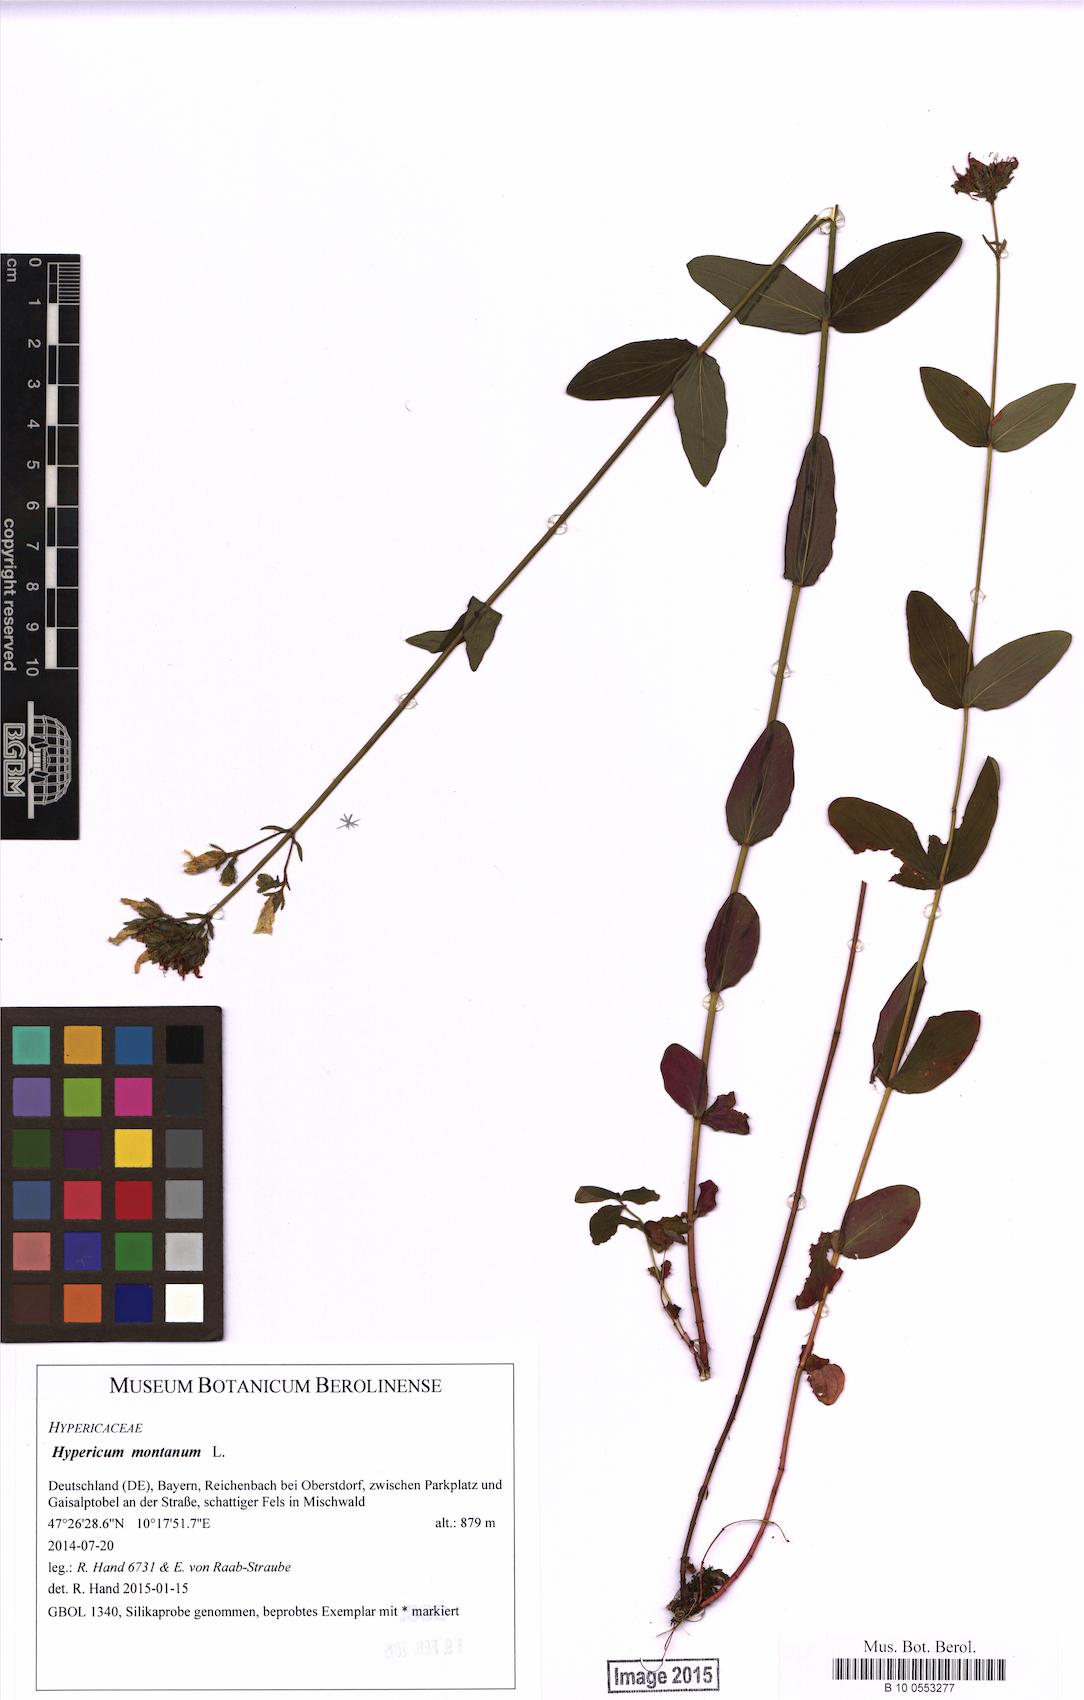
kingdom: Plantae
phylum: Tracheophyta
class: Magnoliopsida
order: Malpighiales
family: Hypericaceae
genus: Hypericum
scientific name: Hypericum montanum
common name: Pale st. john's-wort
